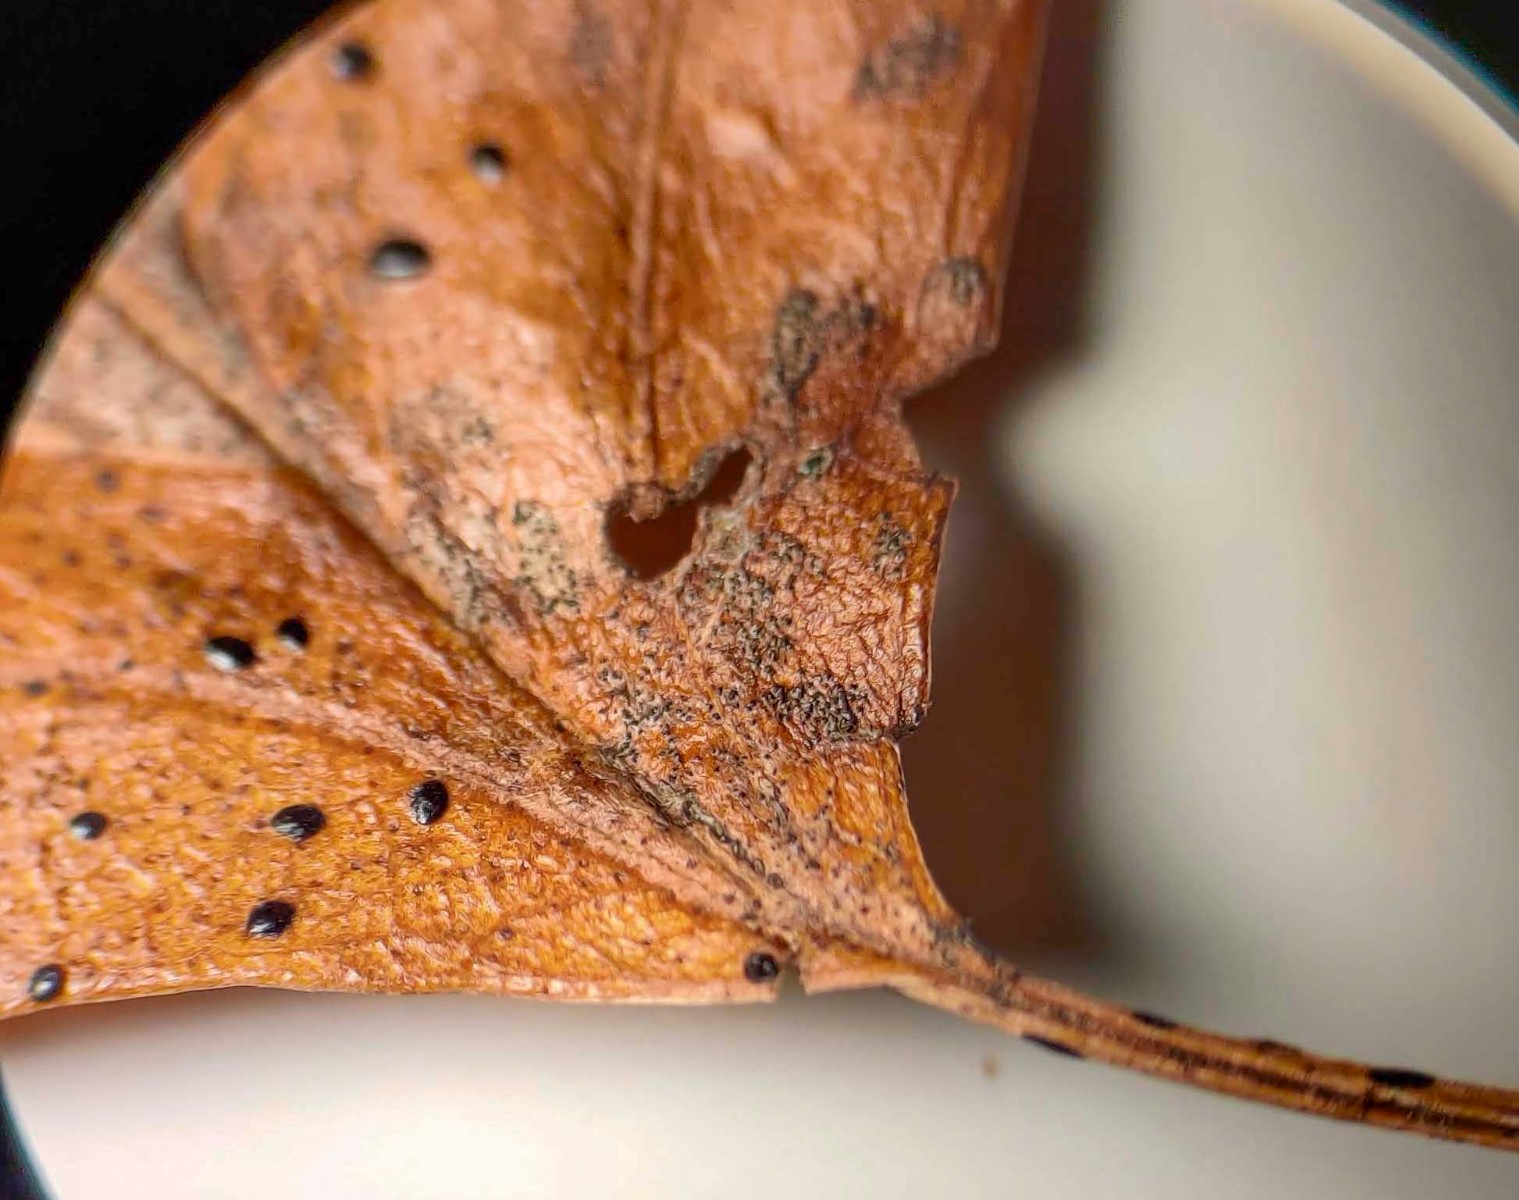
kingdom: Fungi
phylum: Ascomycota
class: Leotiomycetes
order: Rhytismatales
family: Rhytismataceae
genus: Lophodermium
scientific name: Lophodermium foliicola
